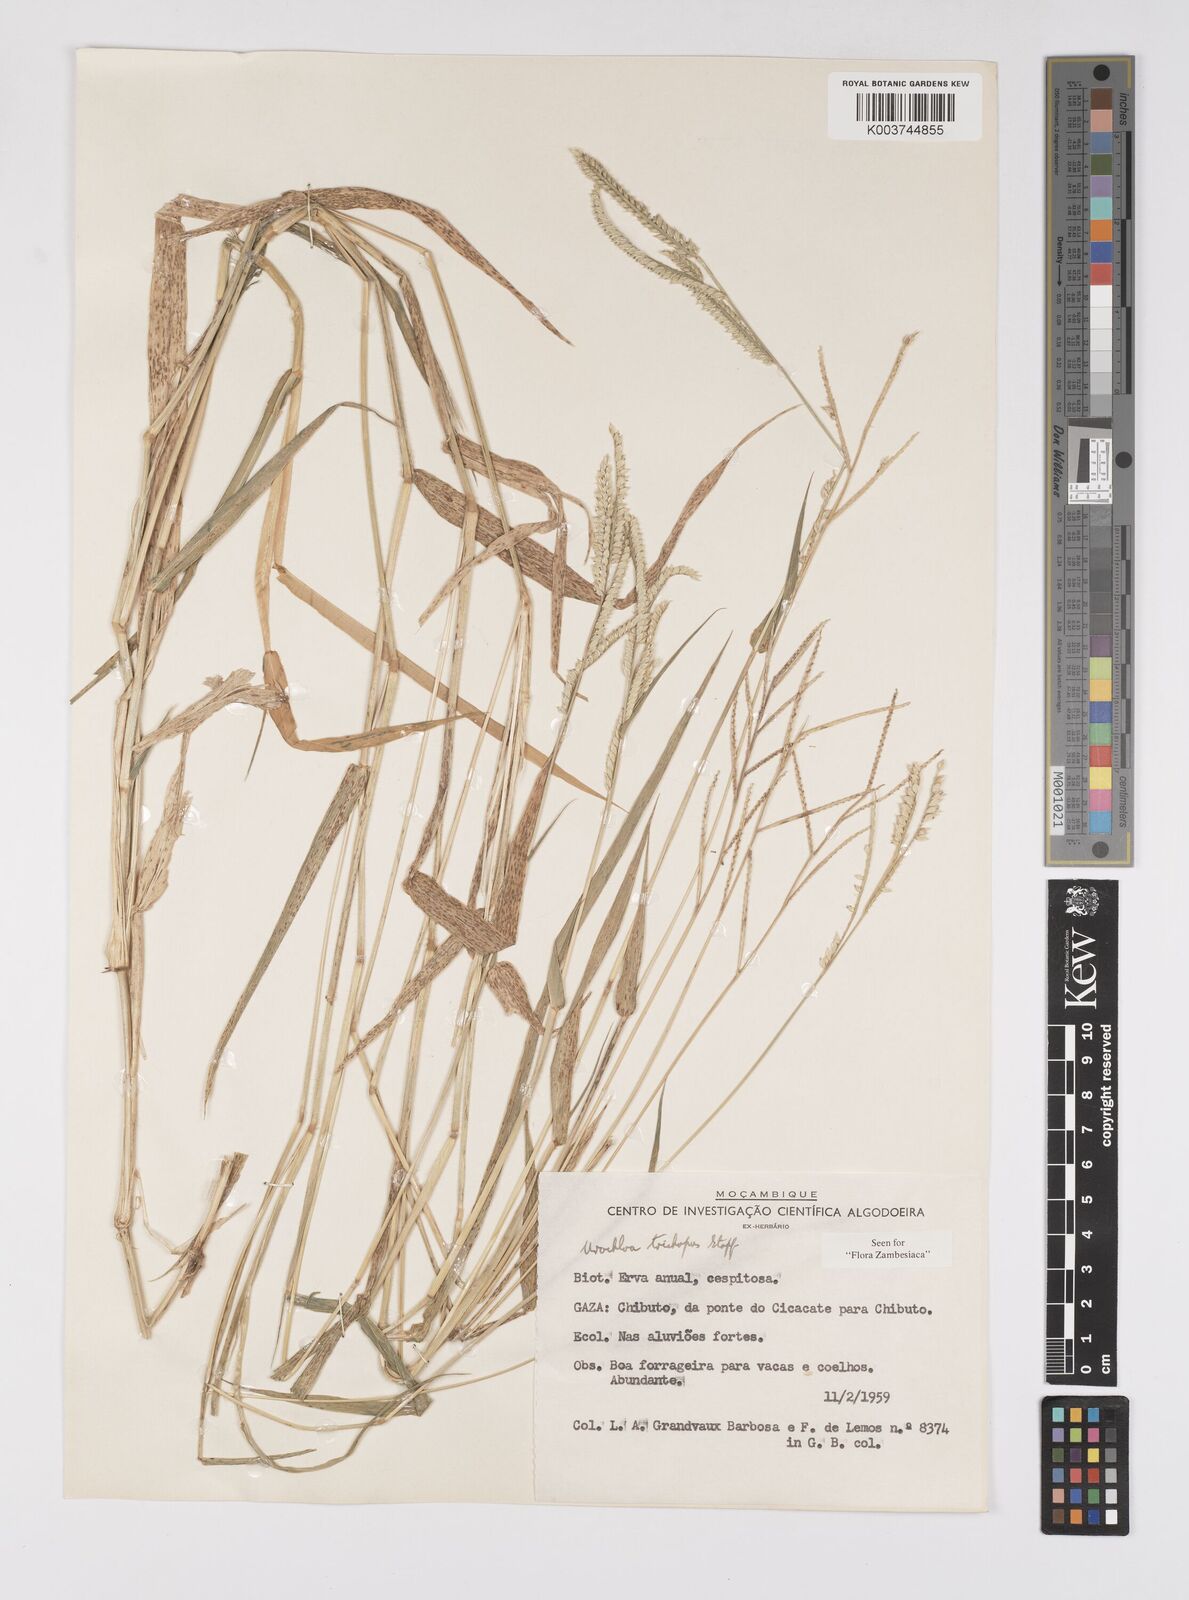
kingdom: Plantae
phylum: Tracheophyta
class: Liliopsida
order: Poales
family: Poaceae
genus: Urochloa
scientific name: Urochloa trichopus
